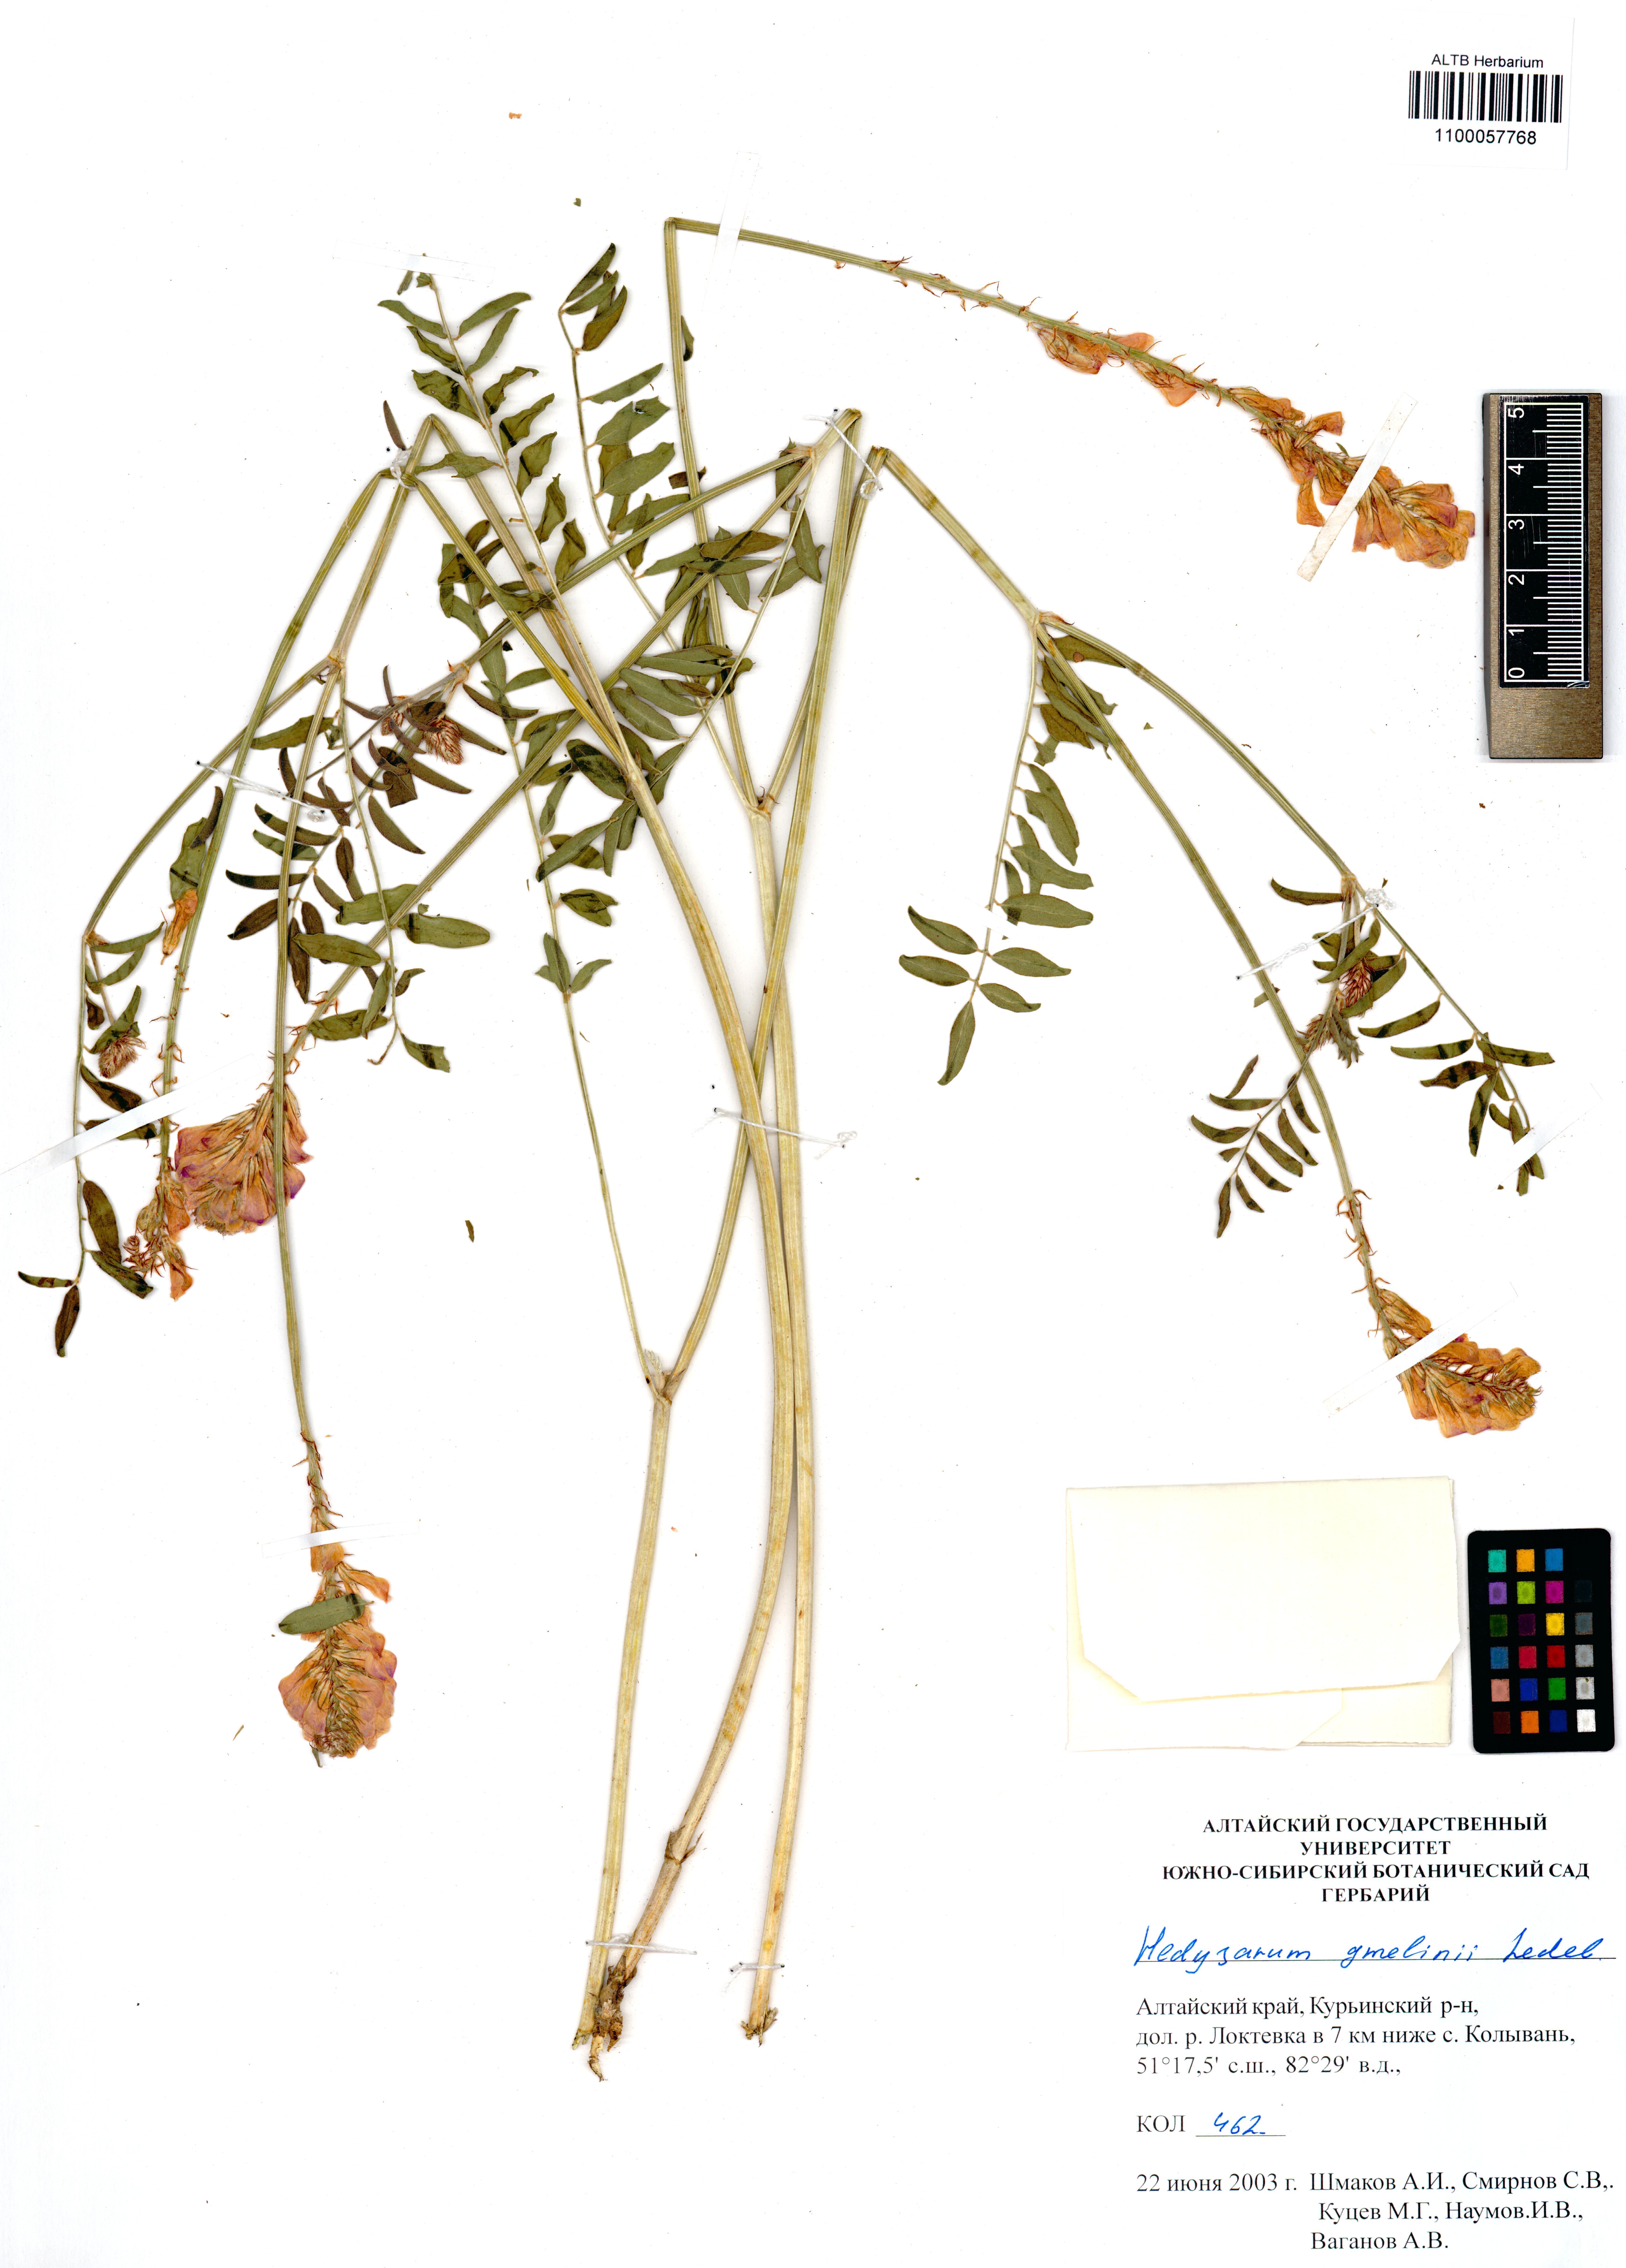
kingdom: Plantae
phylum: Tracheophyta
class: Magnoliopsida
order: Fabales
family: Fabaceae
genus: Hedysarum
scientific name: Hedysarum gmelinii
